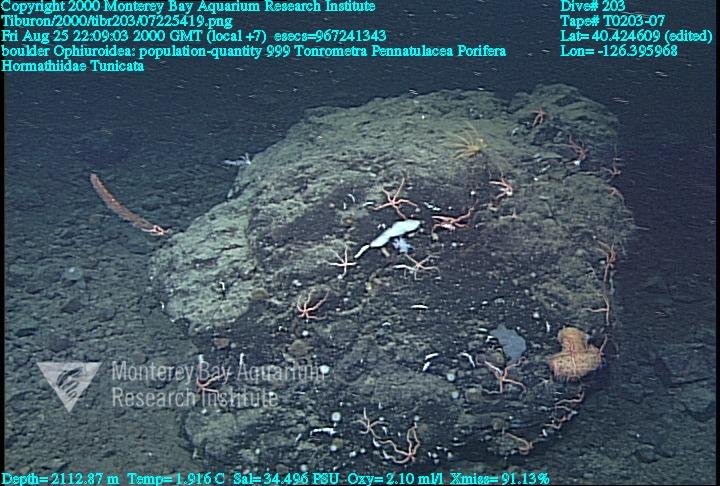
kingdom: Animalia
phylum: Porifera
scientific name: Porifera
